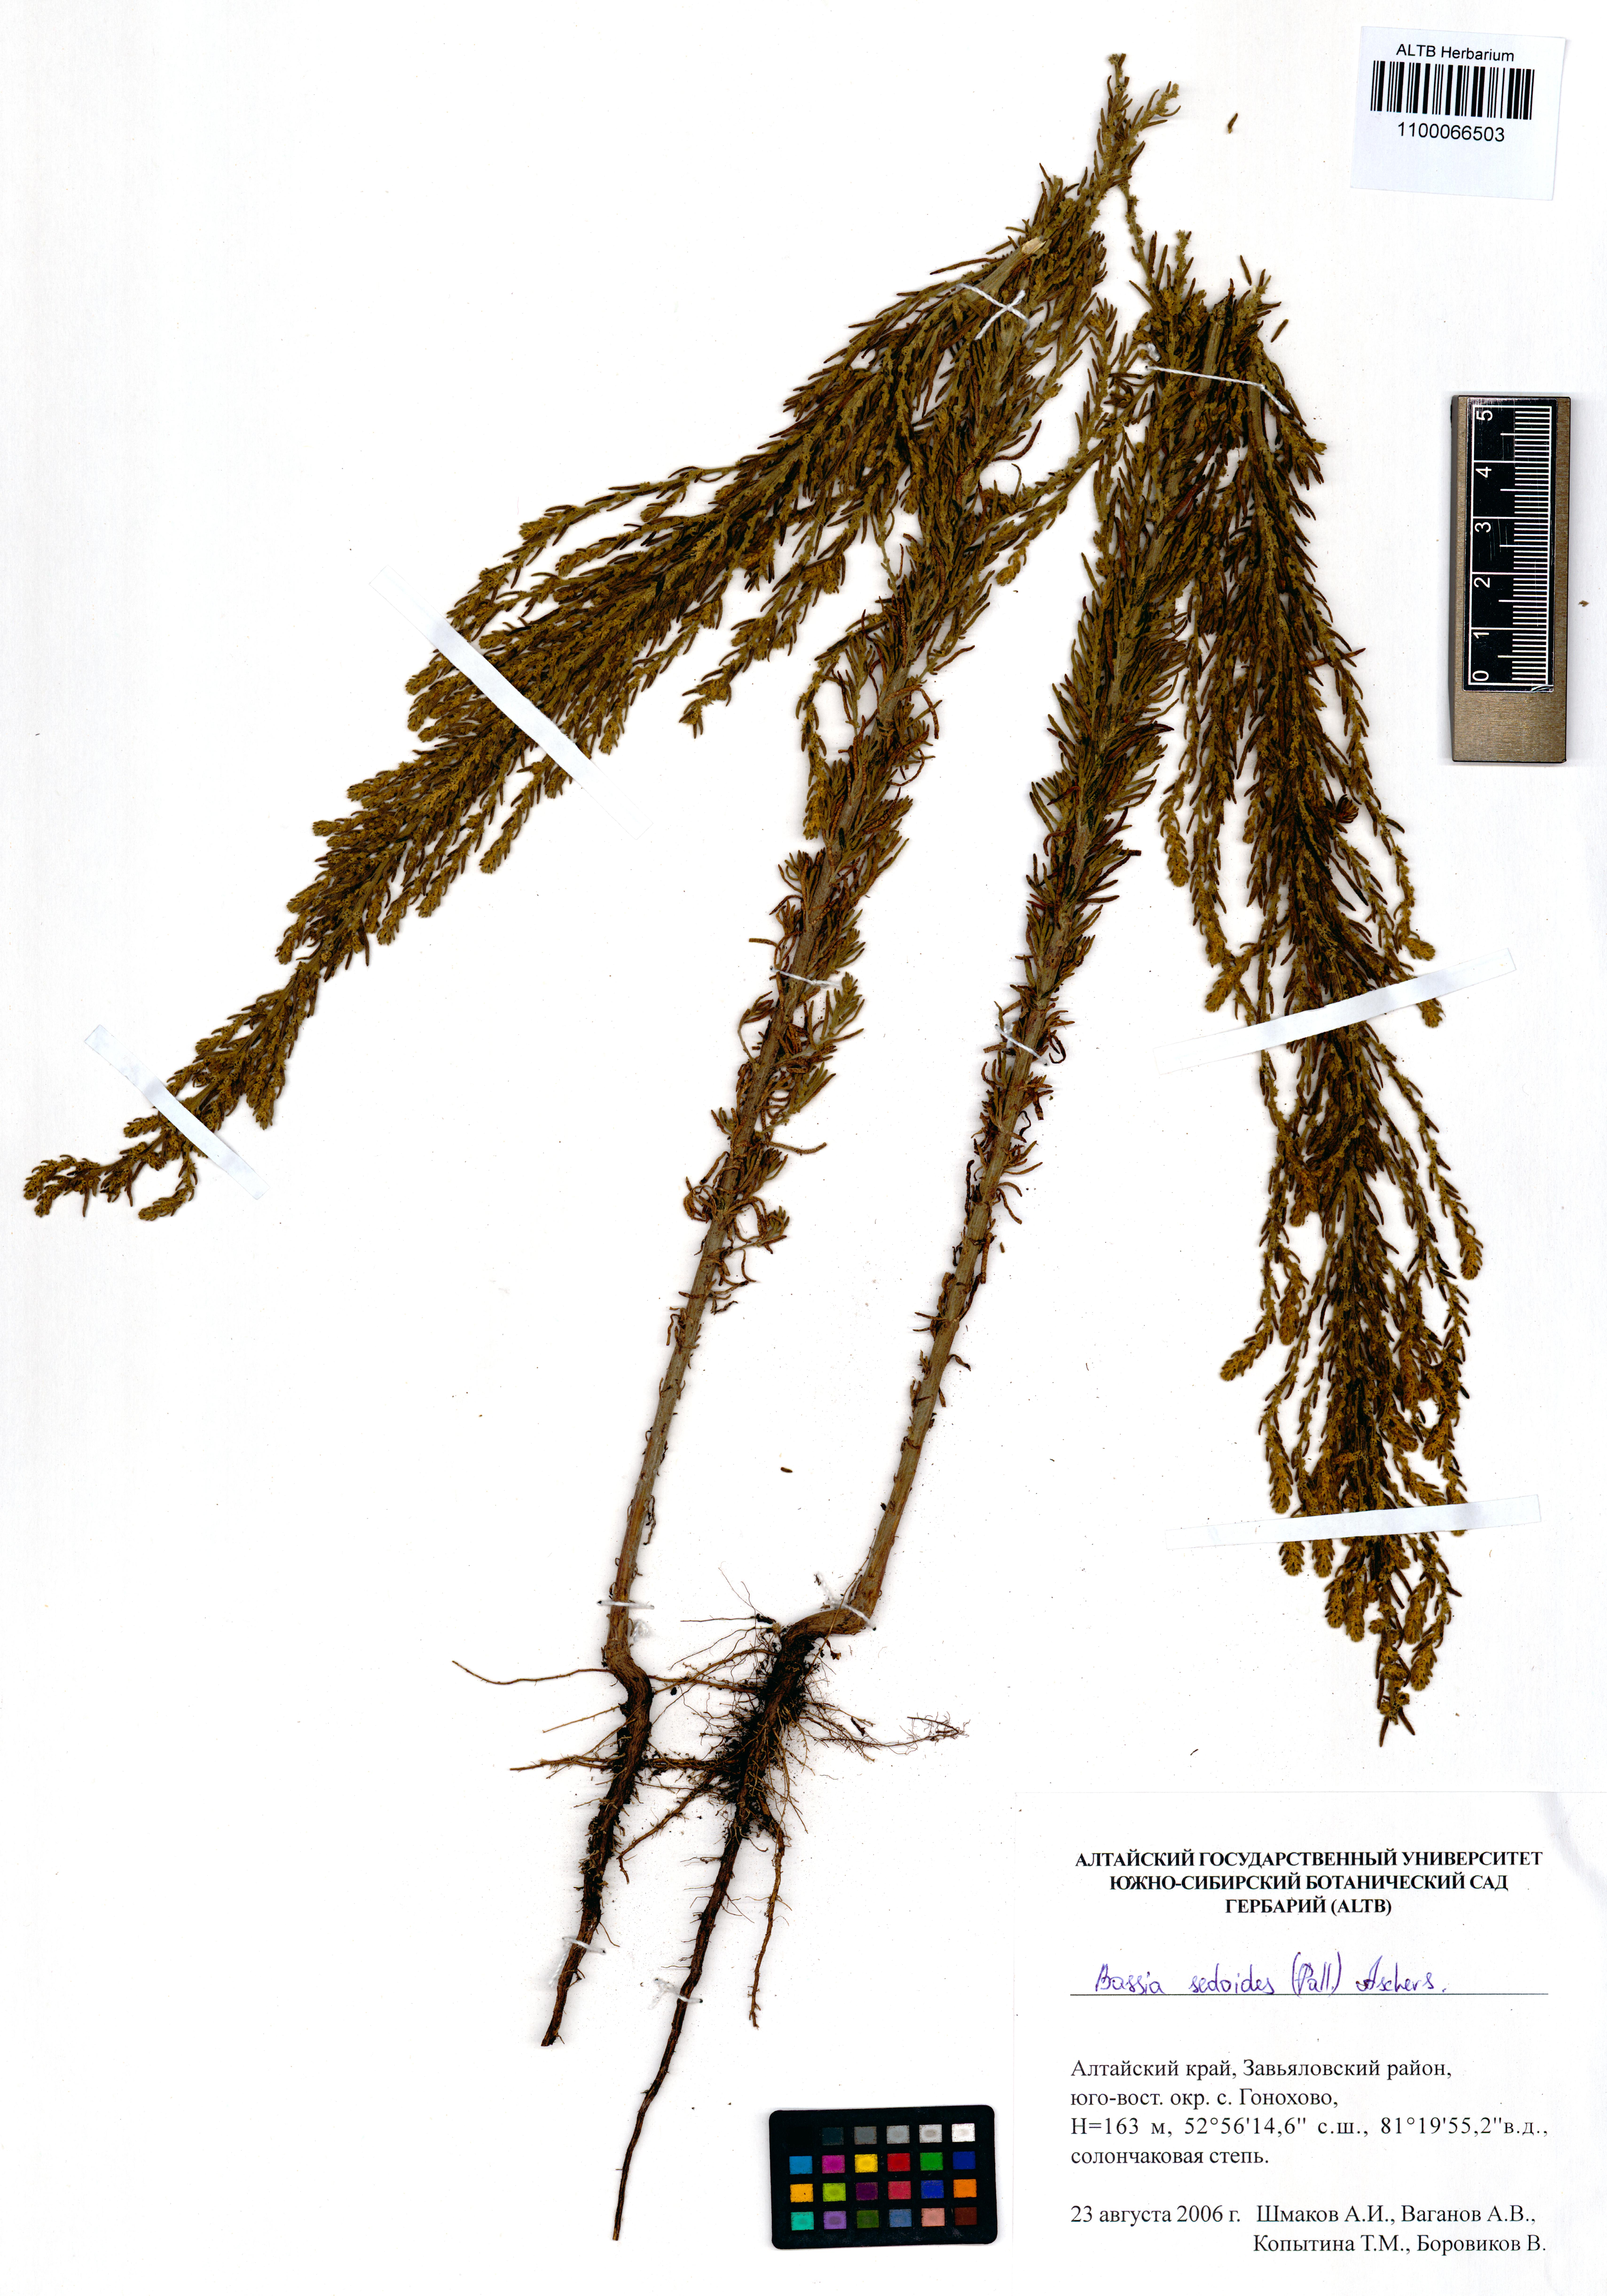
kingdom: Plantae
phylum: Tracheophyta
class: Magnoliopsida
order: Caryophyllales
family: Amaranthaceae
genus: Sedobassia
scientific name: Sedobassia sedoides
